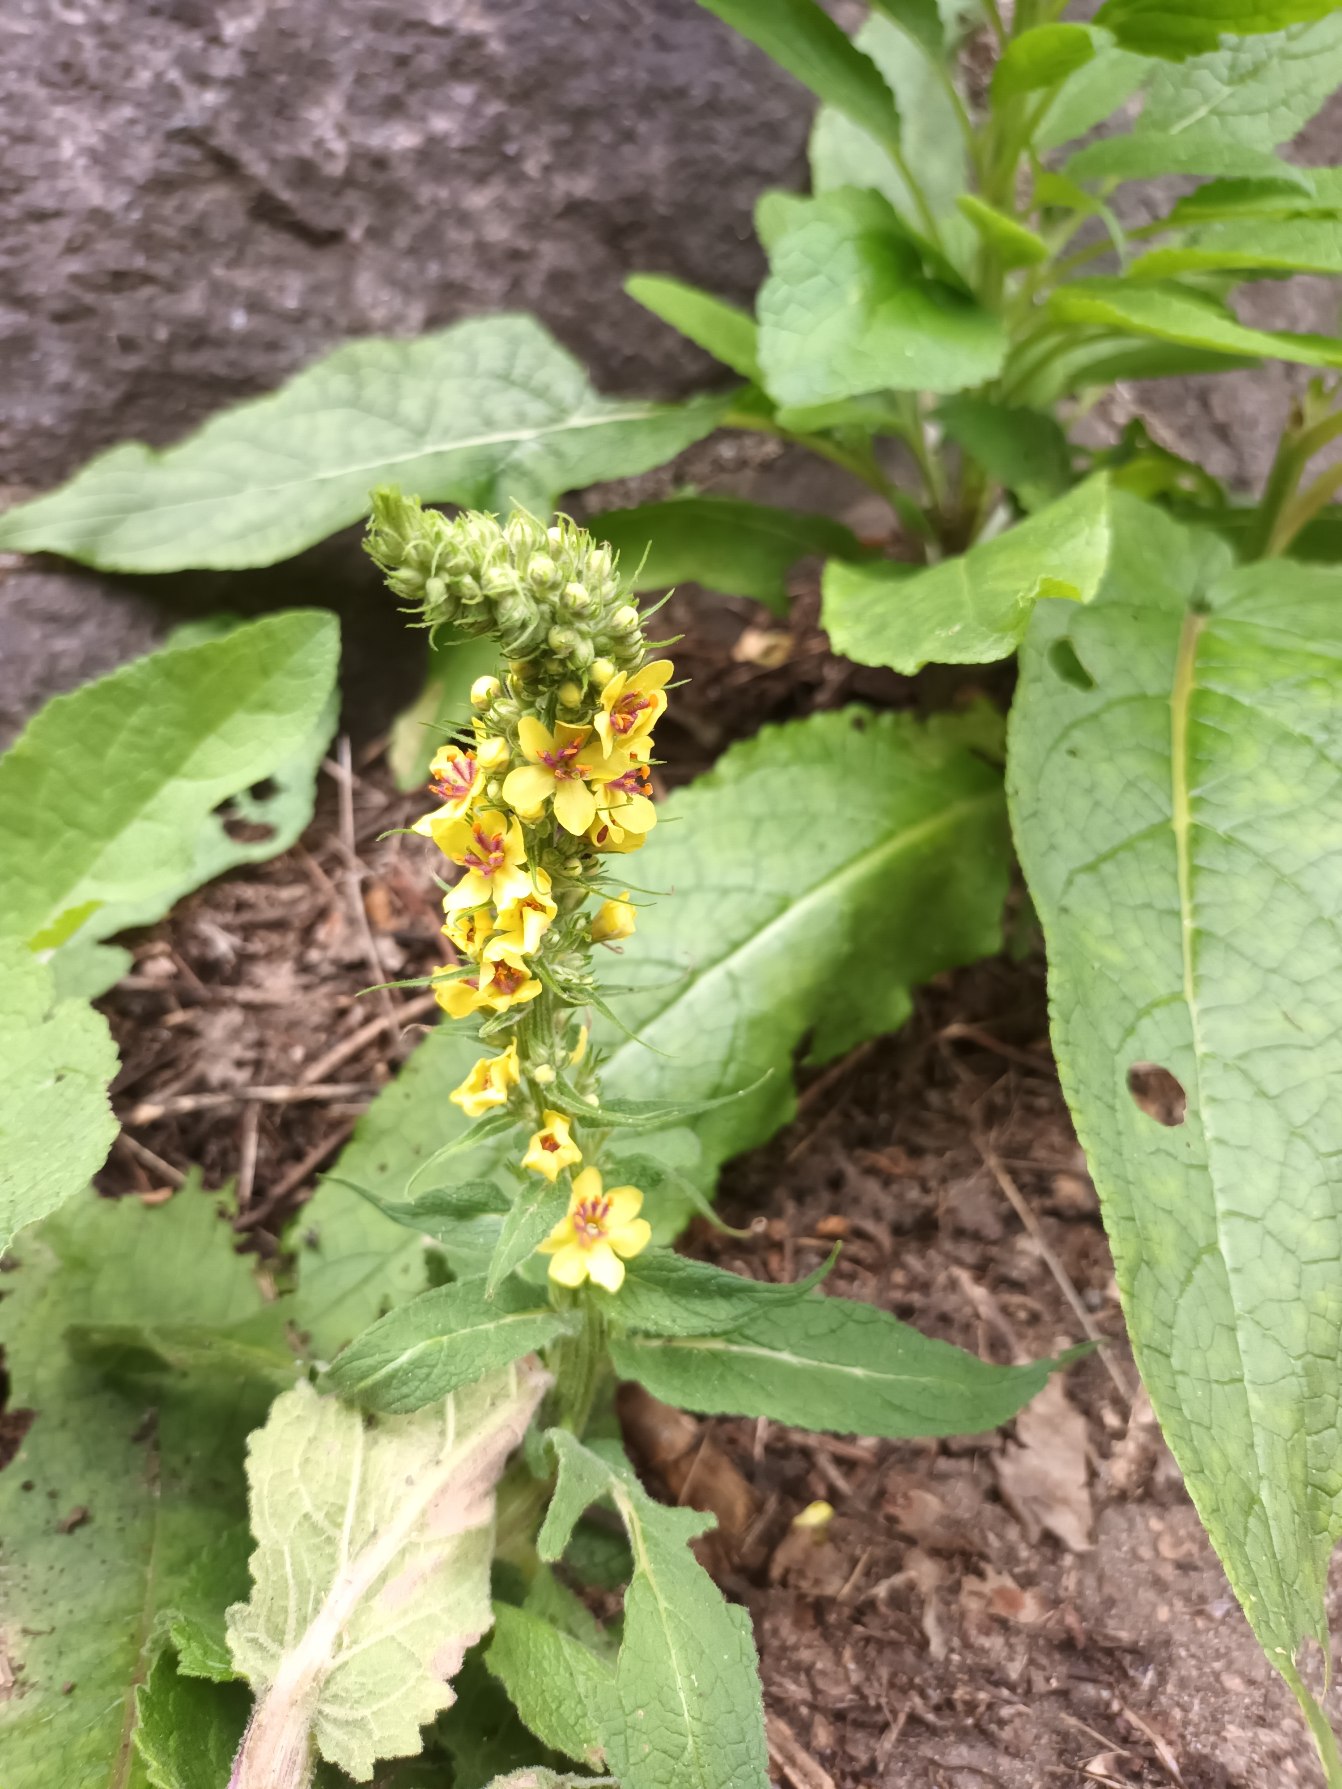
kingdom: Plantae
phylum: Tracheophyta
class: Magnoliopsida
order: Lamiales
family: Scrophulariaceae
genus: Verbascum
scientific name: Verbascum nigrum
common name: Mørk kongelys
